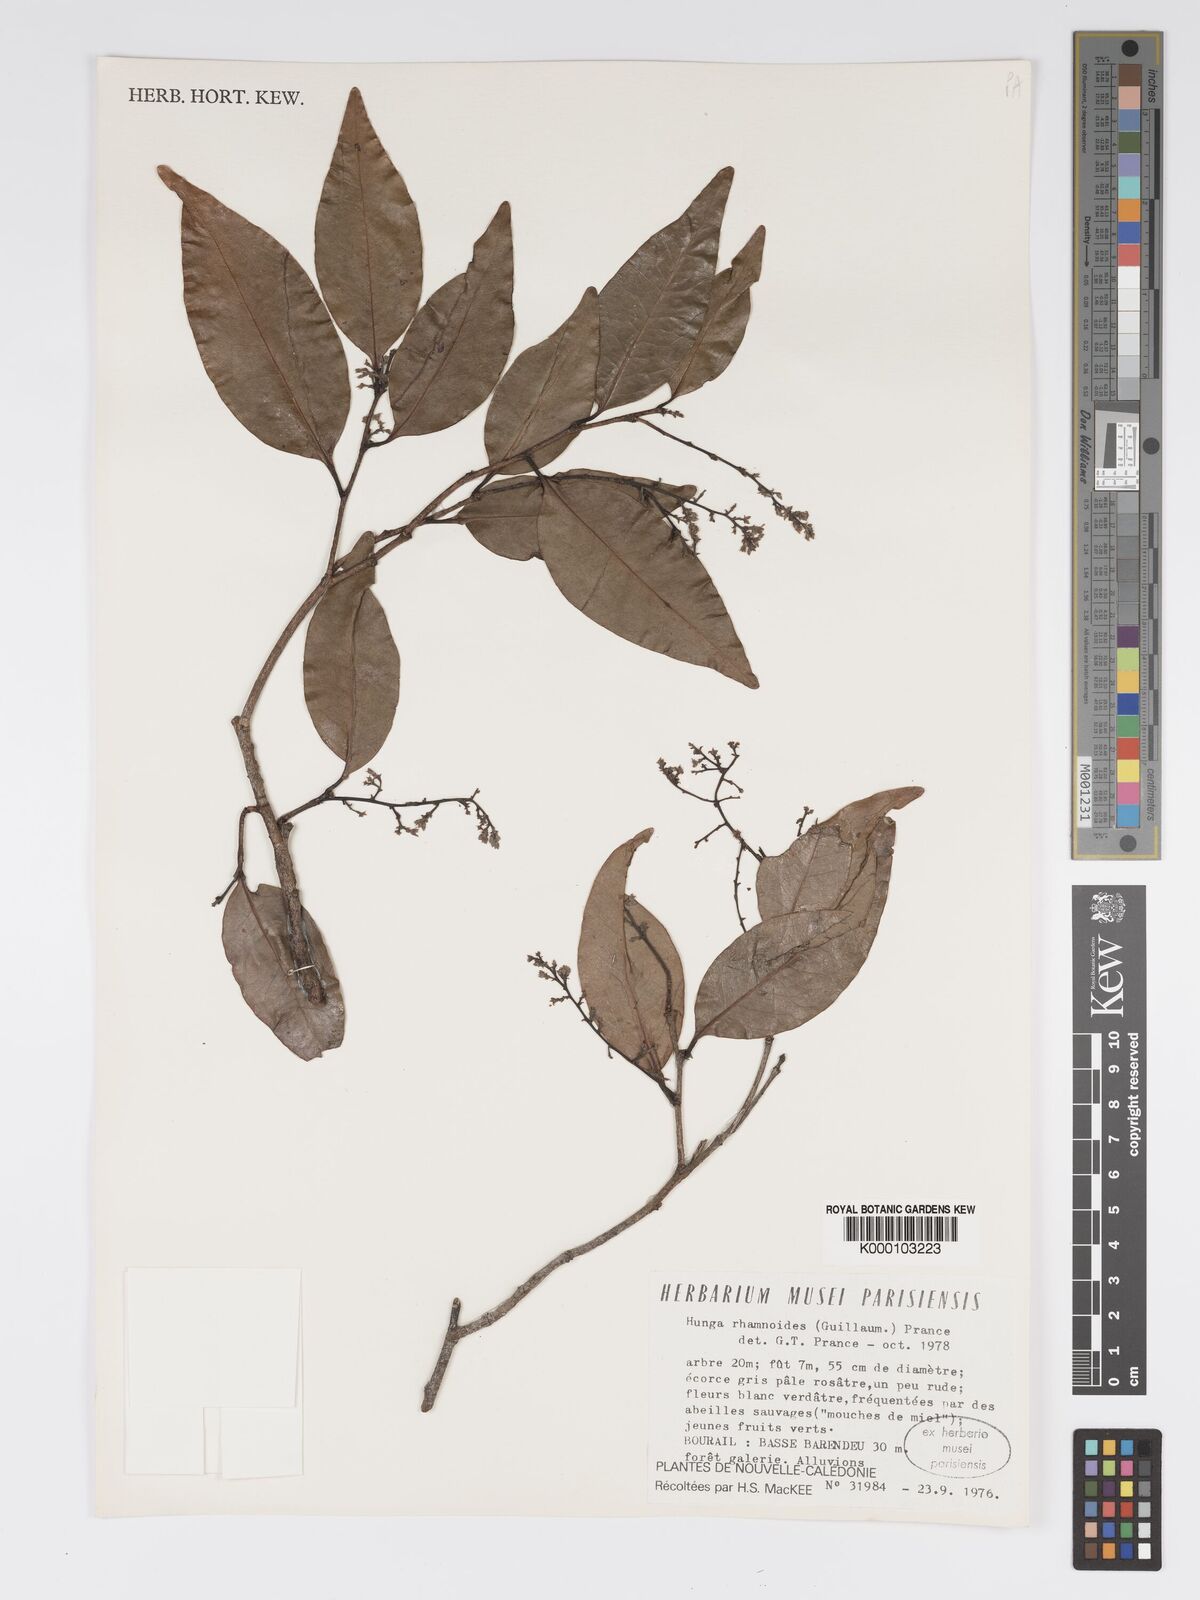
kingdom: Plantae
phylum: Tracheophyta
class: Magnoliopsida
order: Malpighiales
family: Chrysobalanaceae
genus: Hunga
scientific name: Hunga rhamnoides
